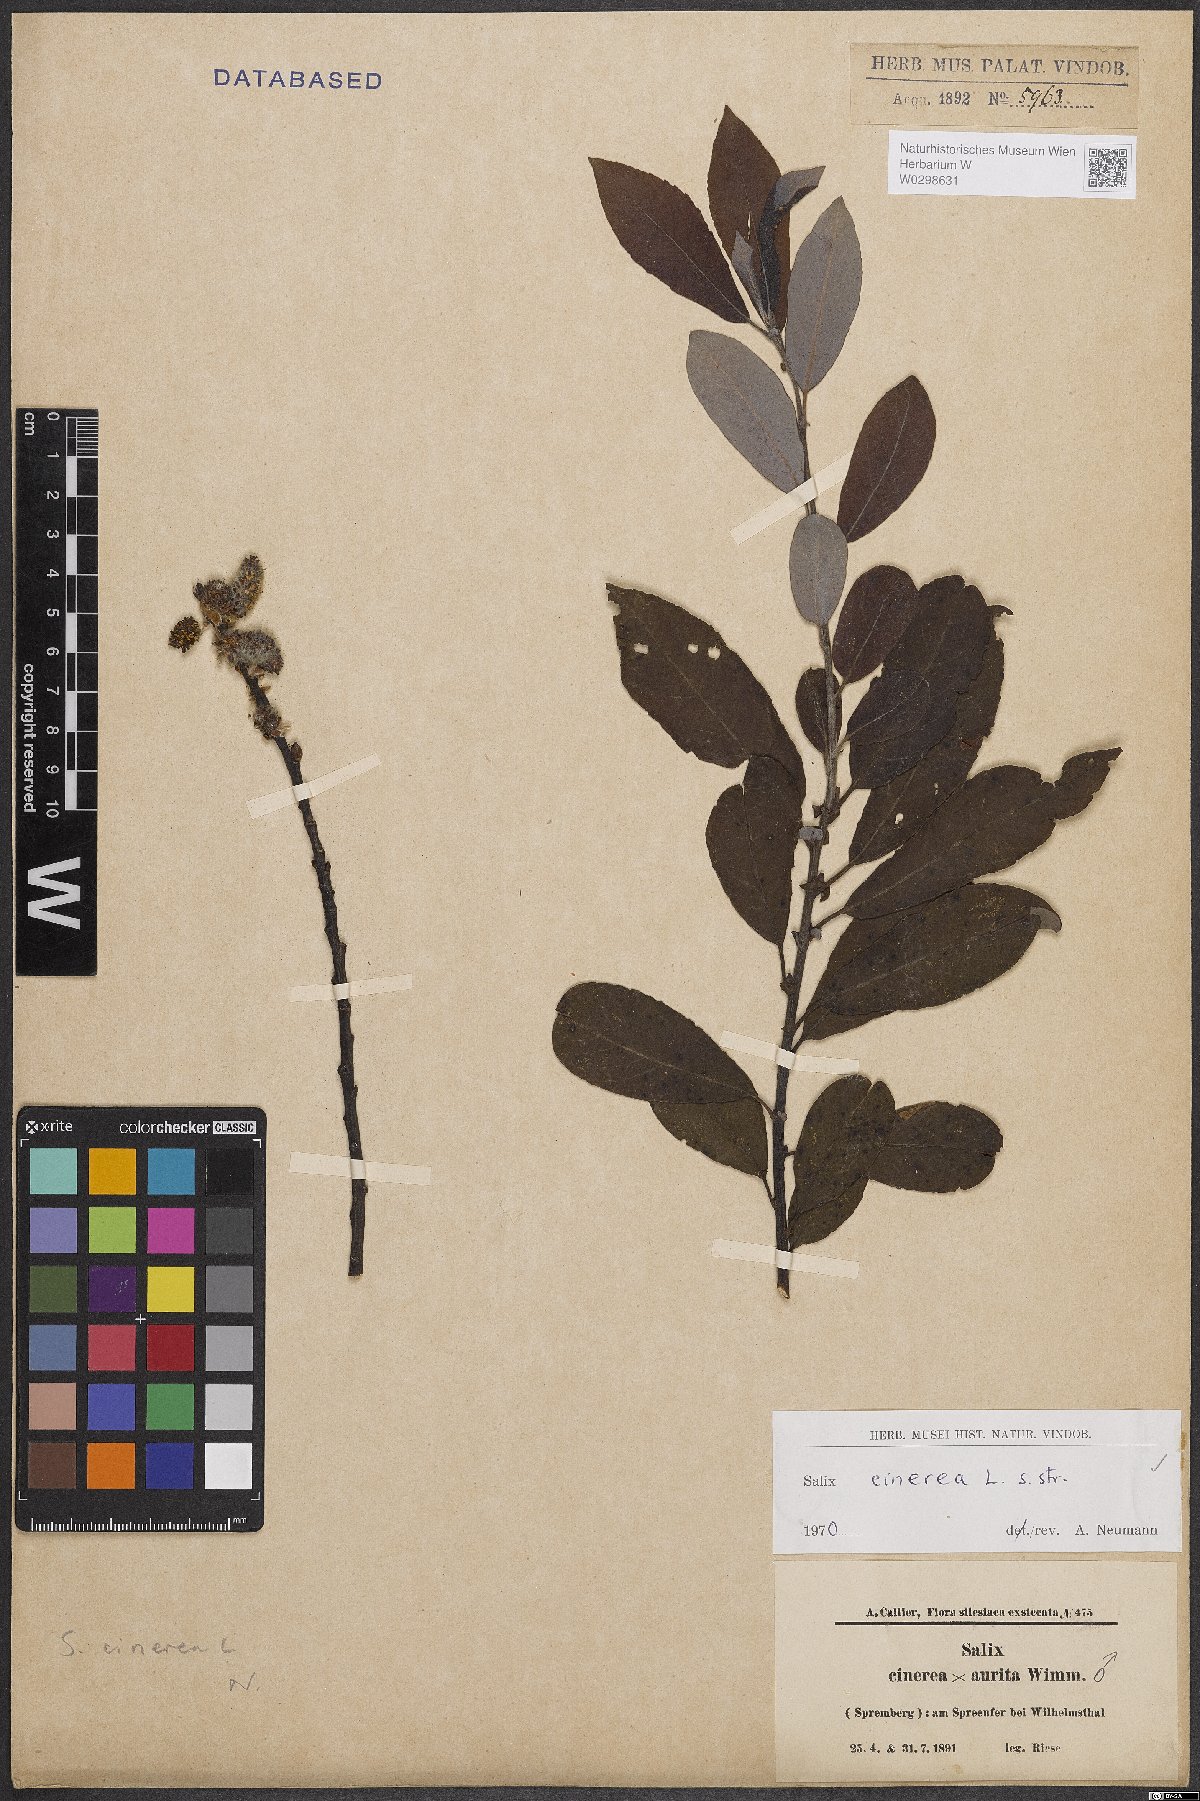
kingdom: Plantae
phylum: Tracheophyta
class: Magnoliopsida
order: Malpighiales
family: Salicaceae
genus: Salix
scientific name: Salix cinerea
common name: Common sallow
